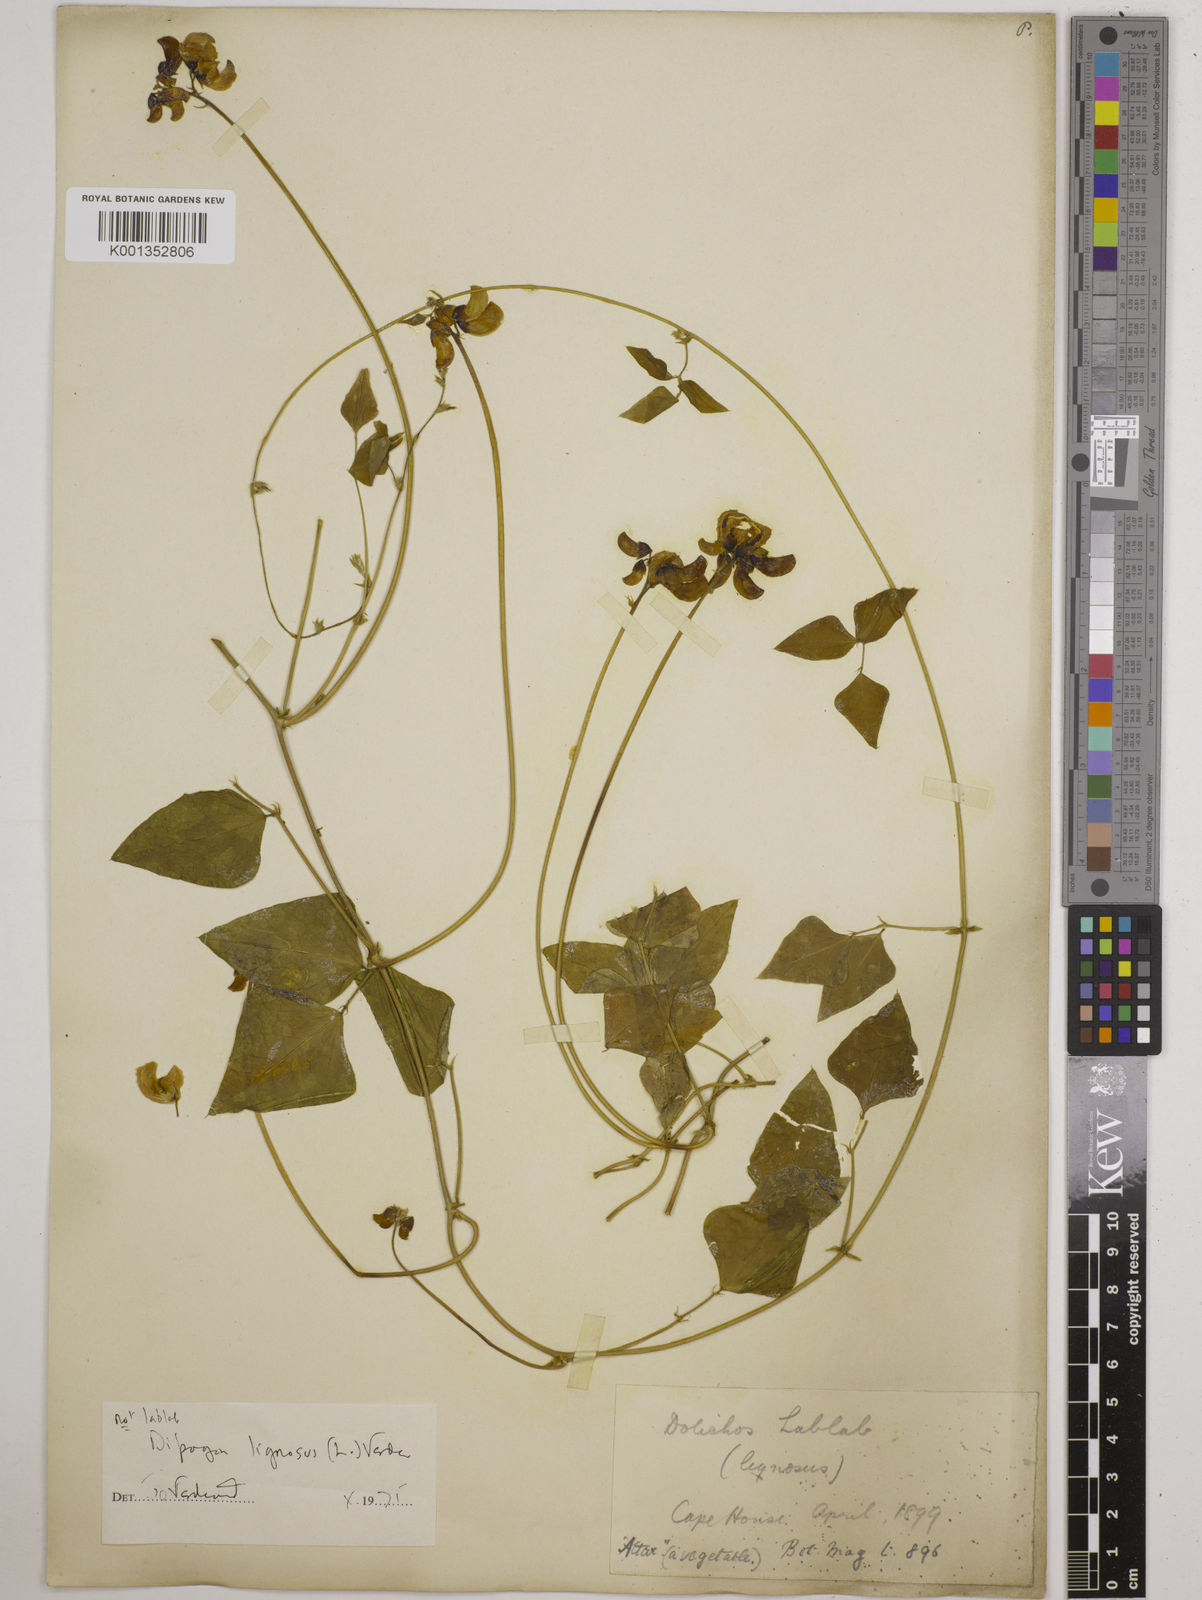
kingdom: Plantae
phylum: Tracheophyta
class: Magnoliopsida
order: Fabales
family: Fabaceae
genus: Dipogon
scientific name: Dipogon lignosus
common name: Okie bean
